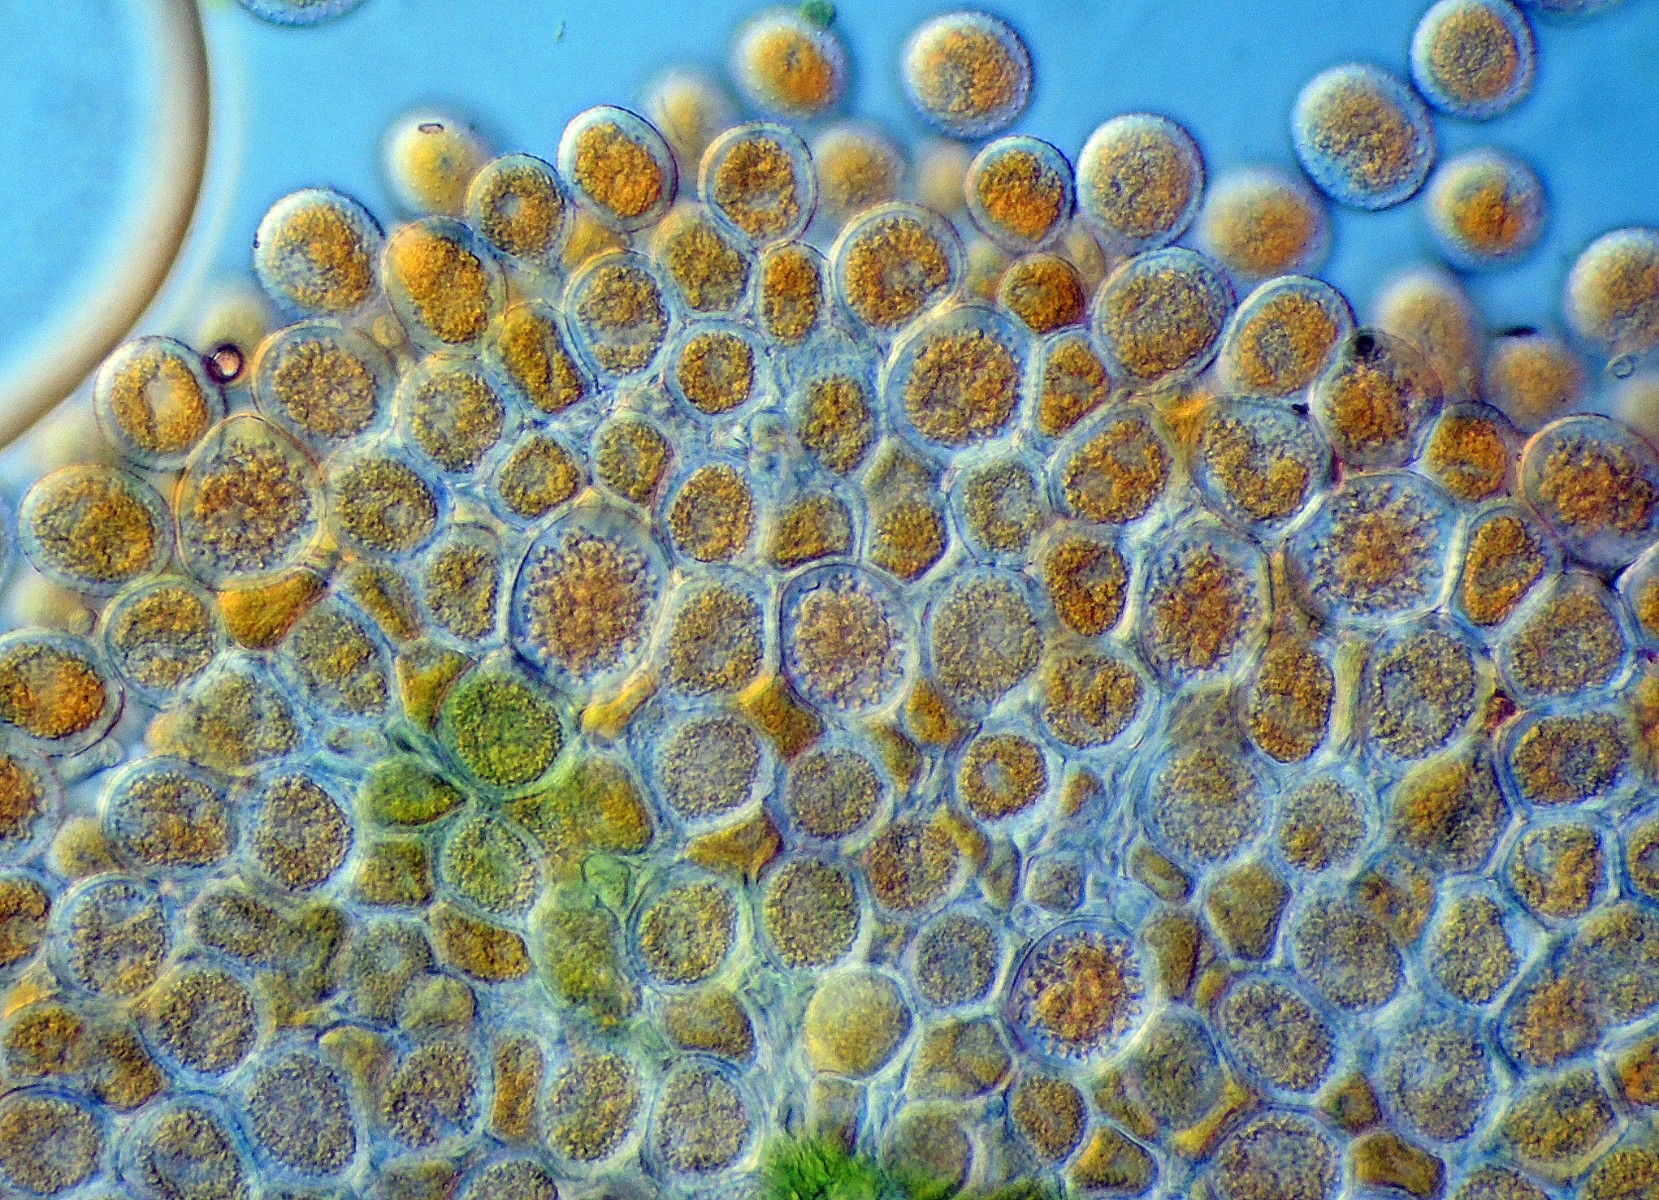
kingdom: Fungi
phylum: Basidiomycota
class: Pucciniomycetes
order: Pucciniales
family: Pucciniaceae
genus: Puccinia
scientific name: Puccinia coronata
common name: Crown rust
